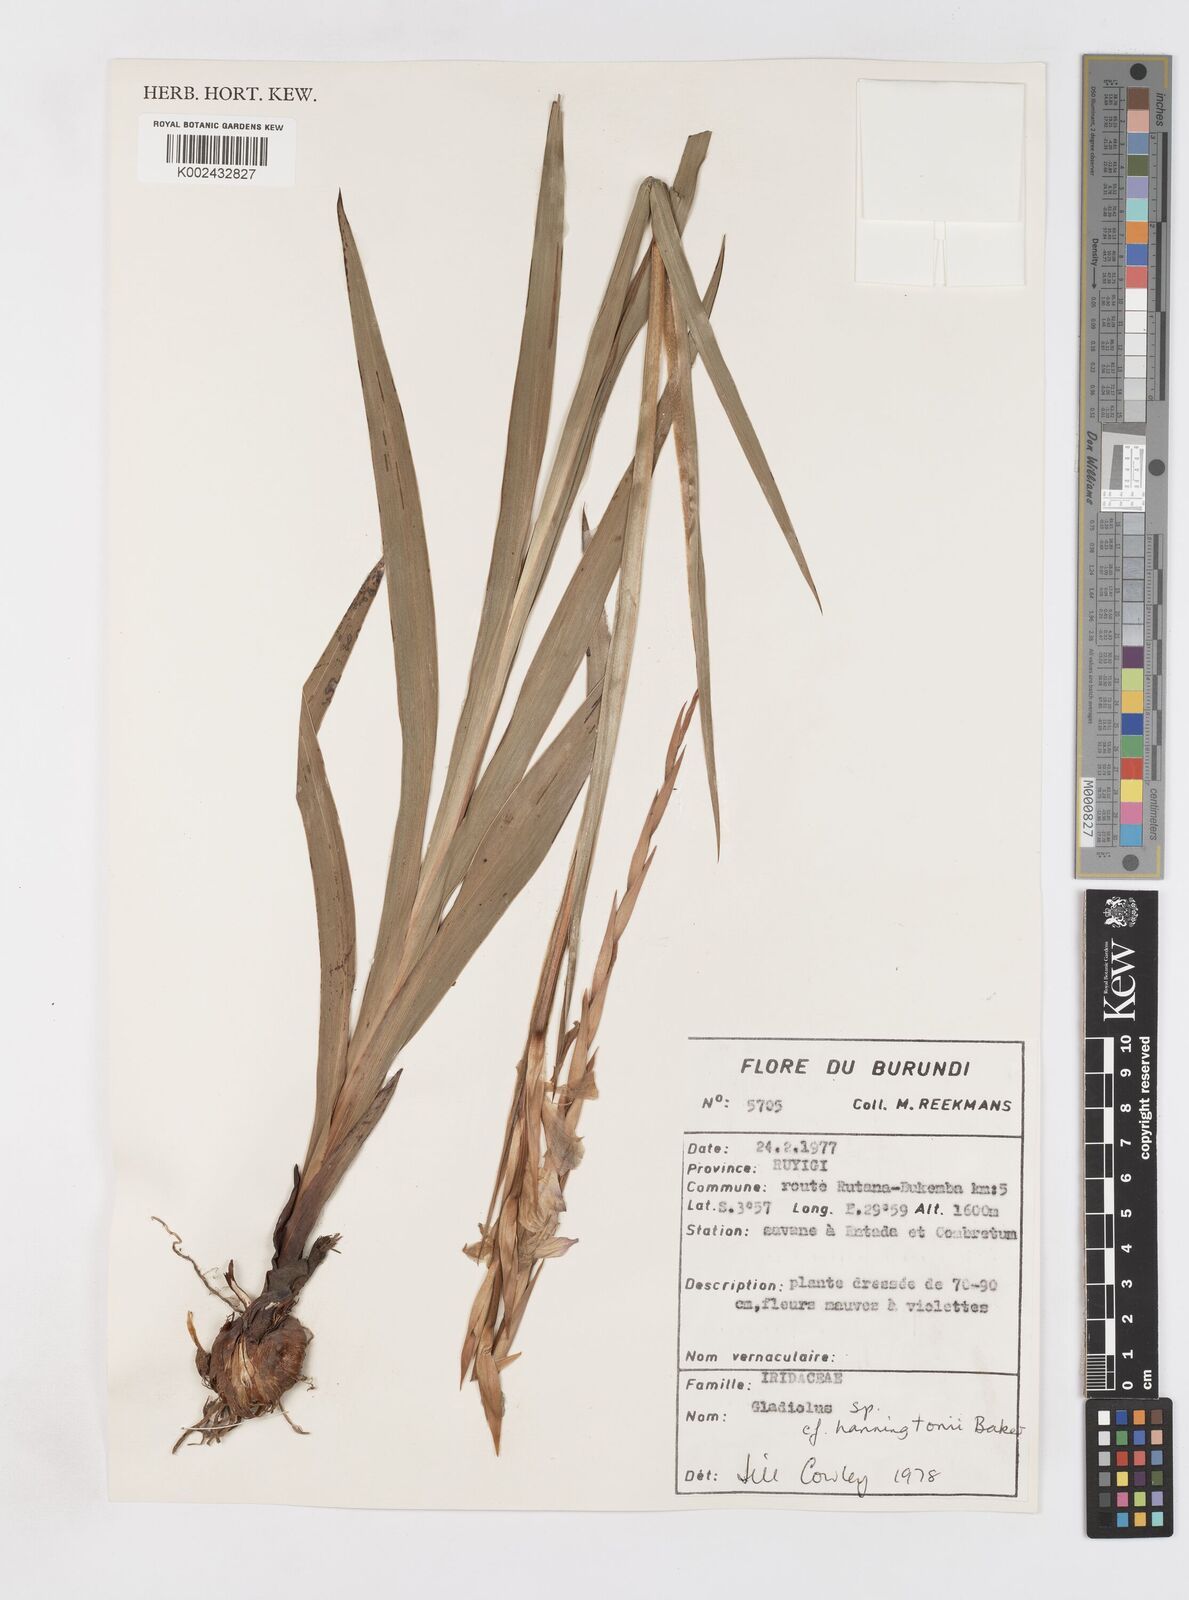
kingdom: Plantae
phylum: Tracheophyta
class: Liliopsida
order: Asparagales
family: Iridaceae
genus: Gladiolus
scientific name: Gladiolus gregarius
